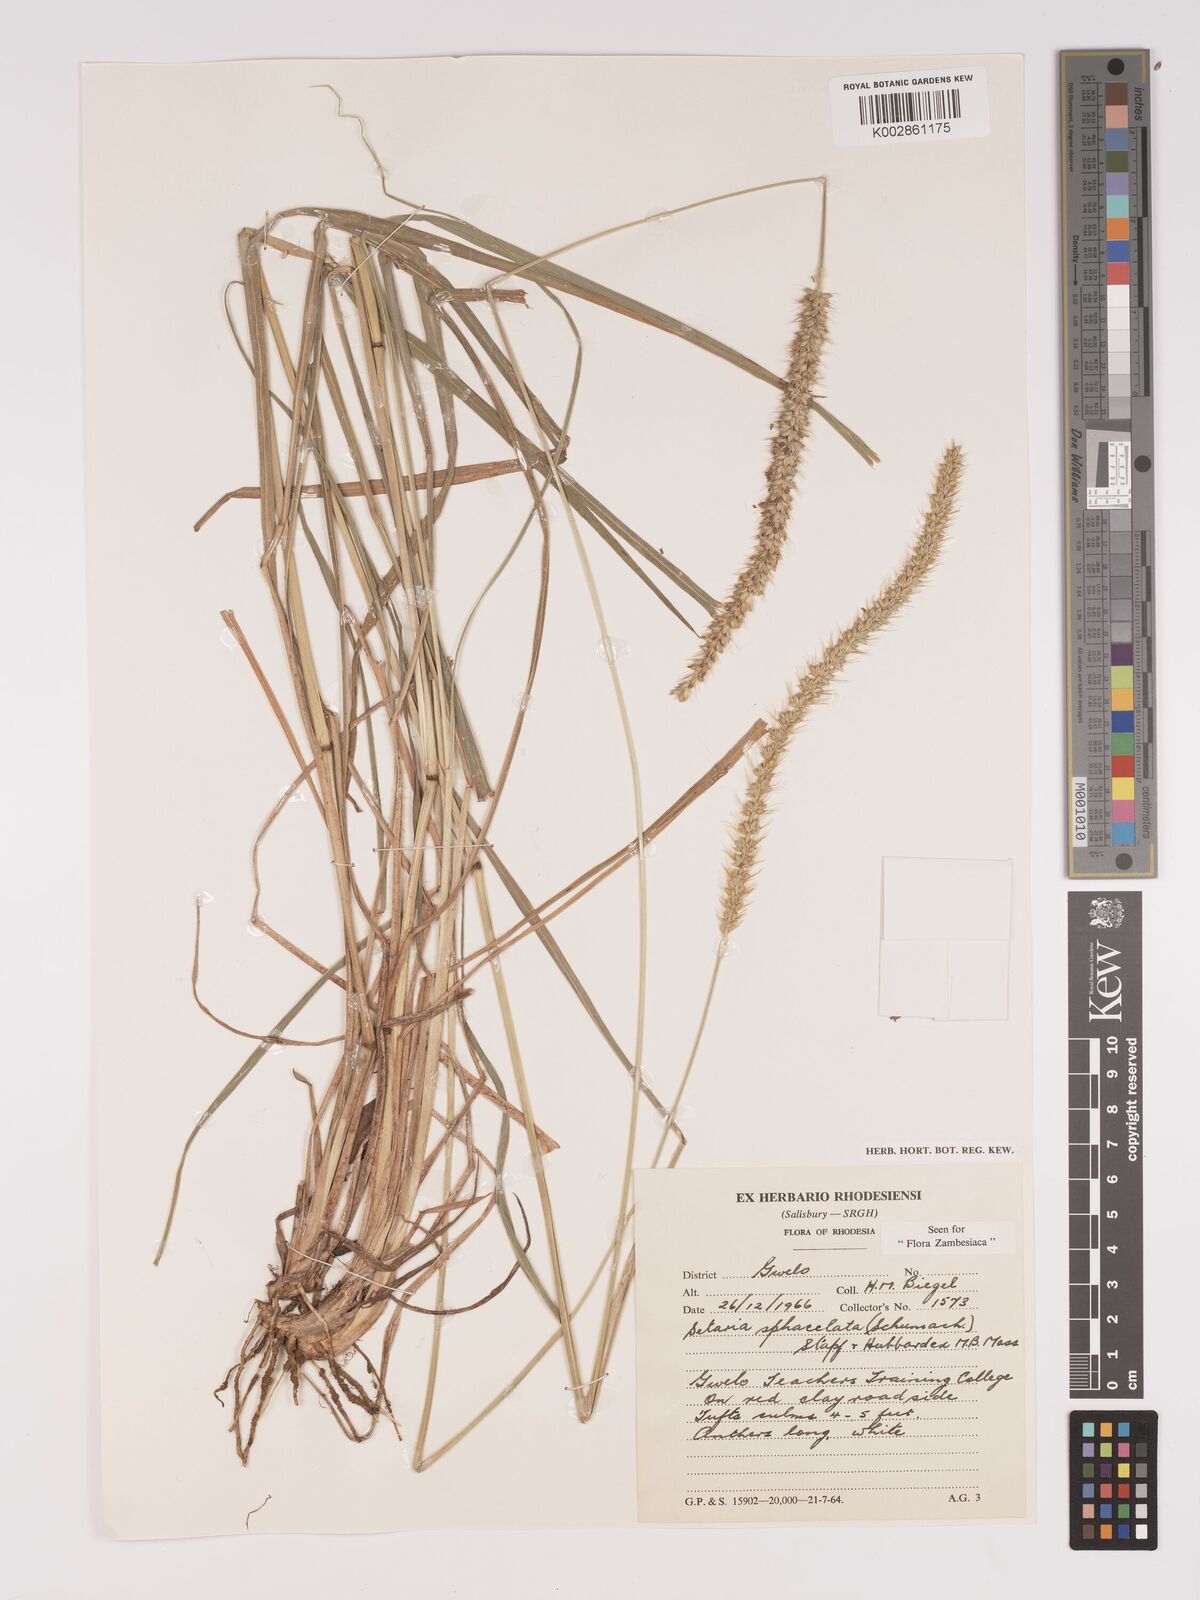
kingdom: Plantae
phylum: Tracheophyta
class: Liliopsida
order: Poales
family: Poaceae
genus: Setaria
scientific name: Setaria sphacelata
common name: African bristlegrass
